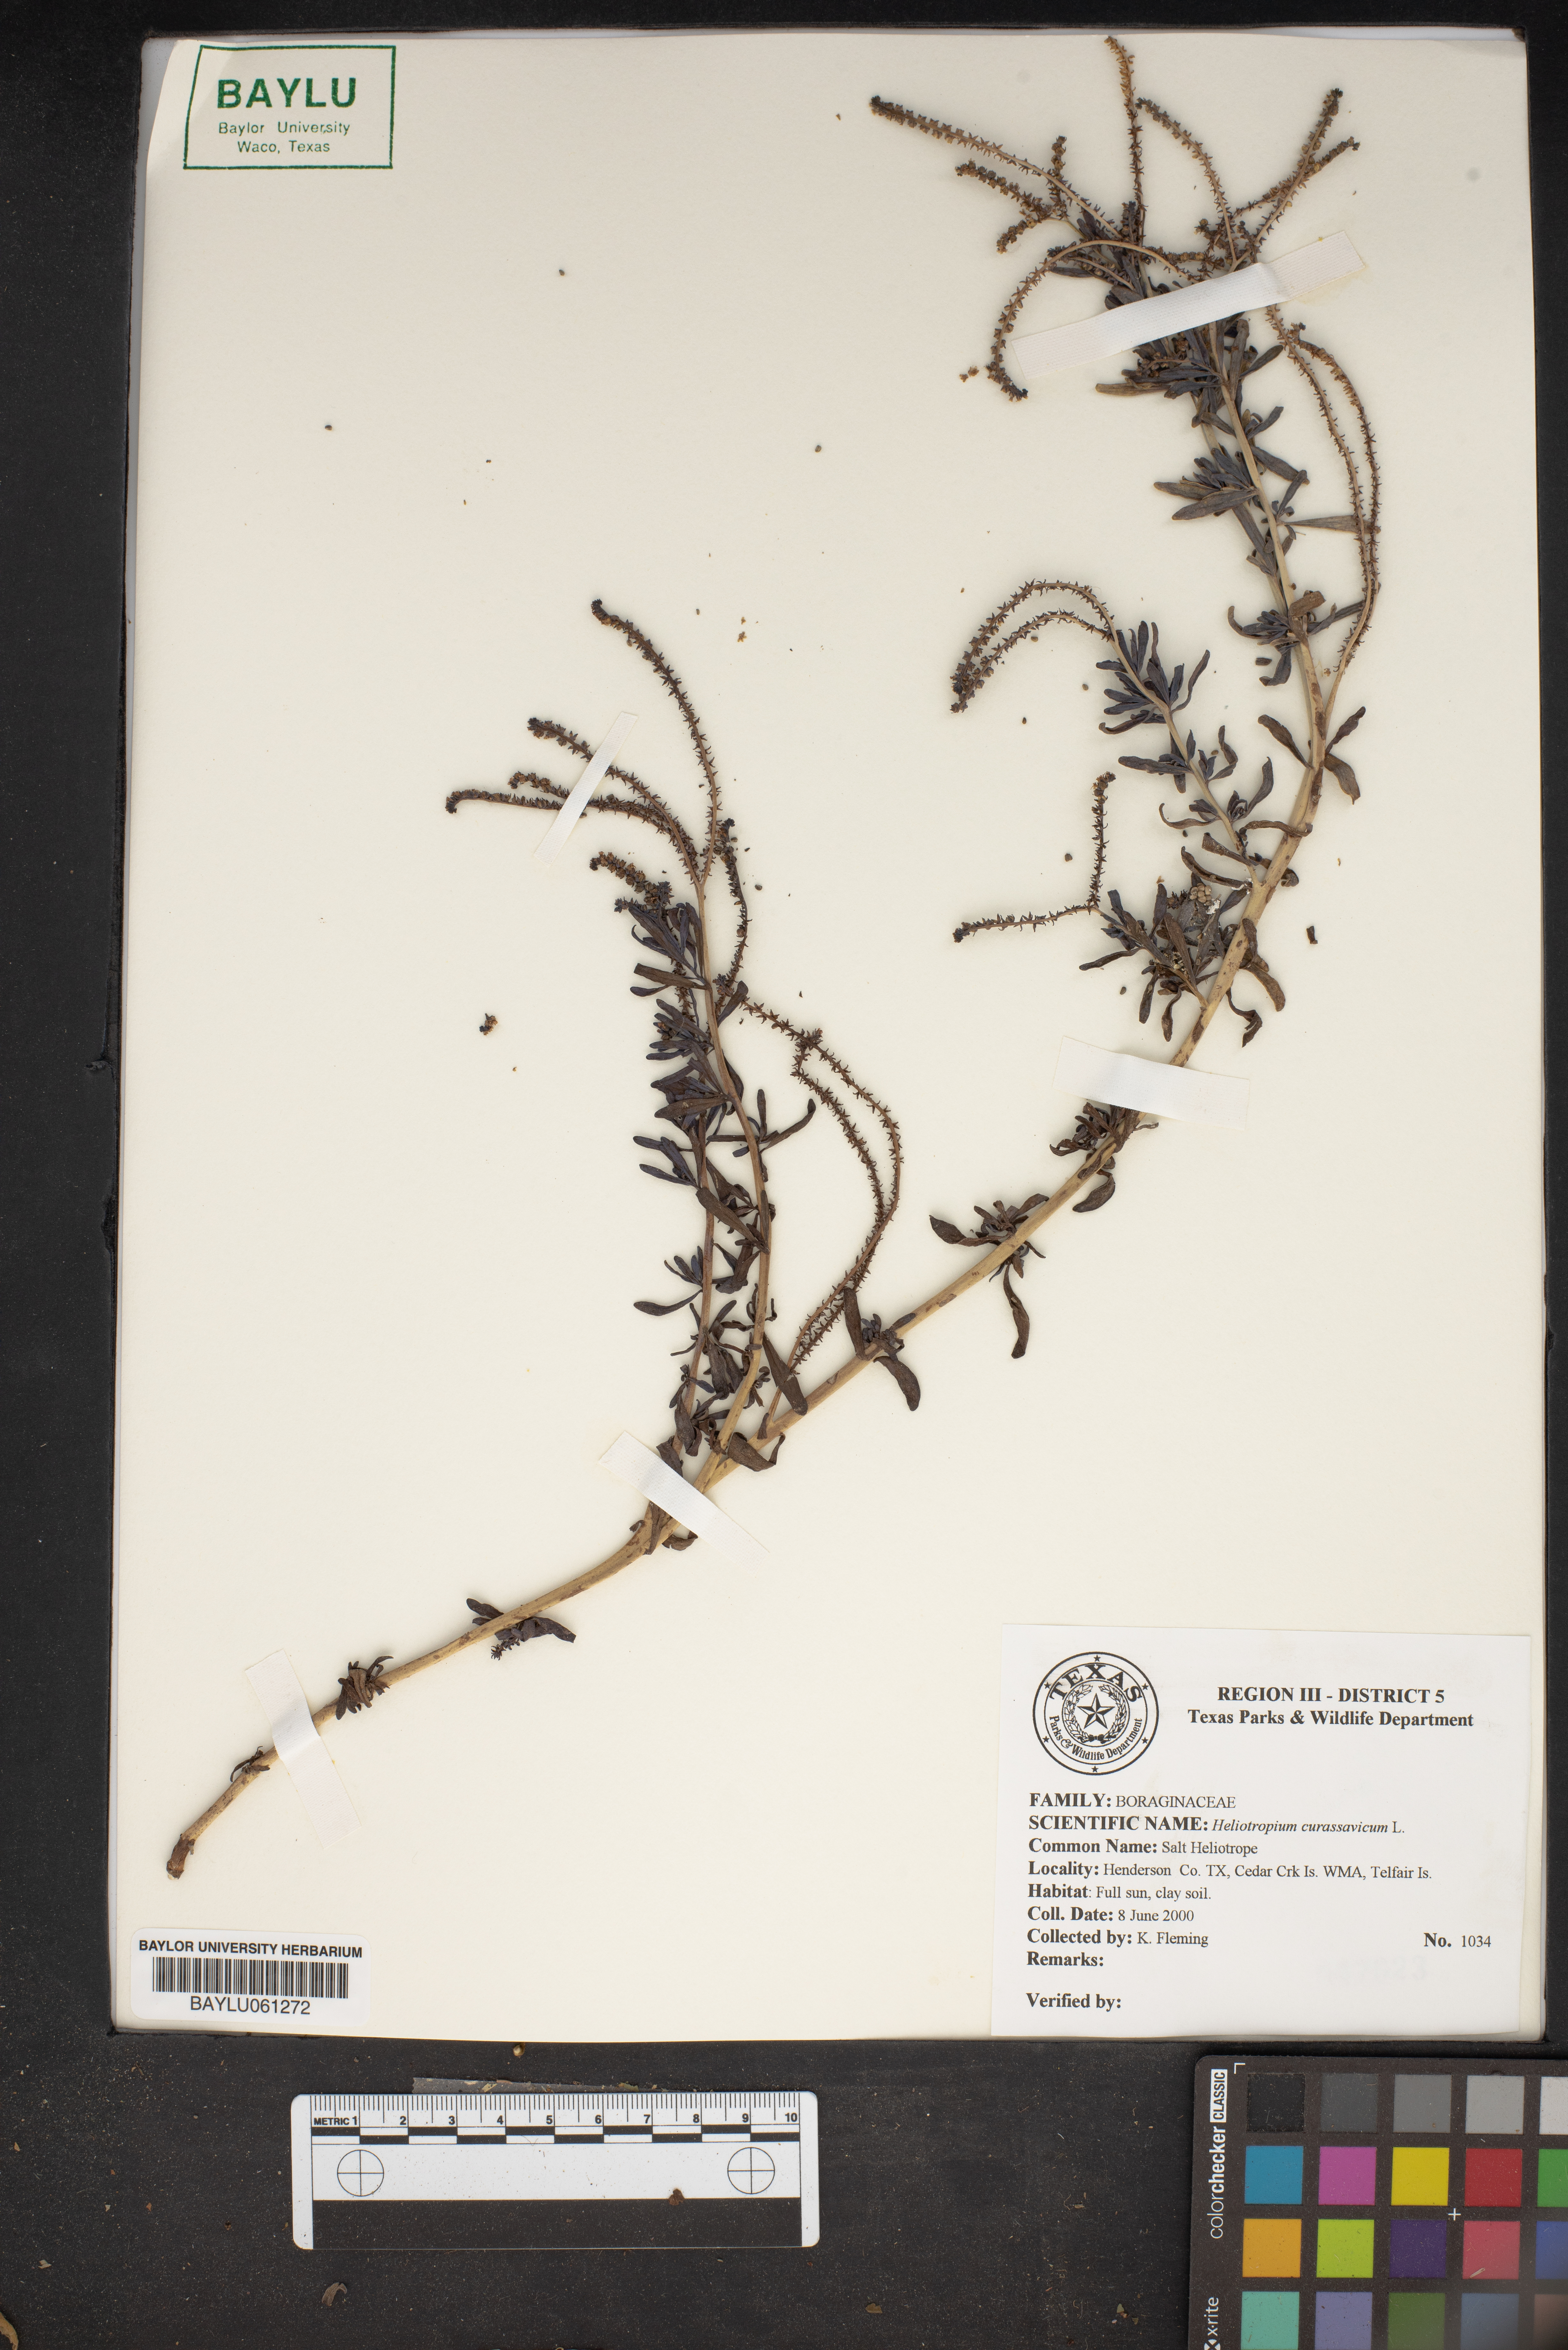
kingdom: Plantae
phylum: Tracheophyta
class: Magnoliopsida
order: Boraginales
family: Heliotropiaceae
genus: Heliotropium
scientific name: Heliotropium curassavicum
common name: Seaside heliotrope
